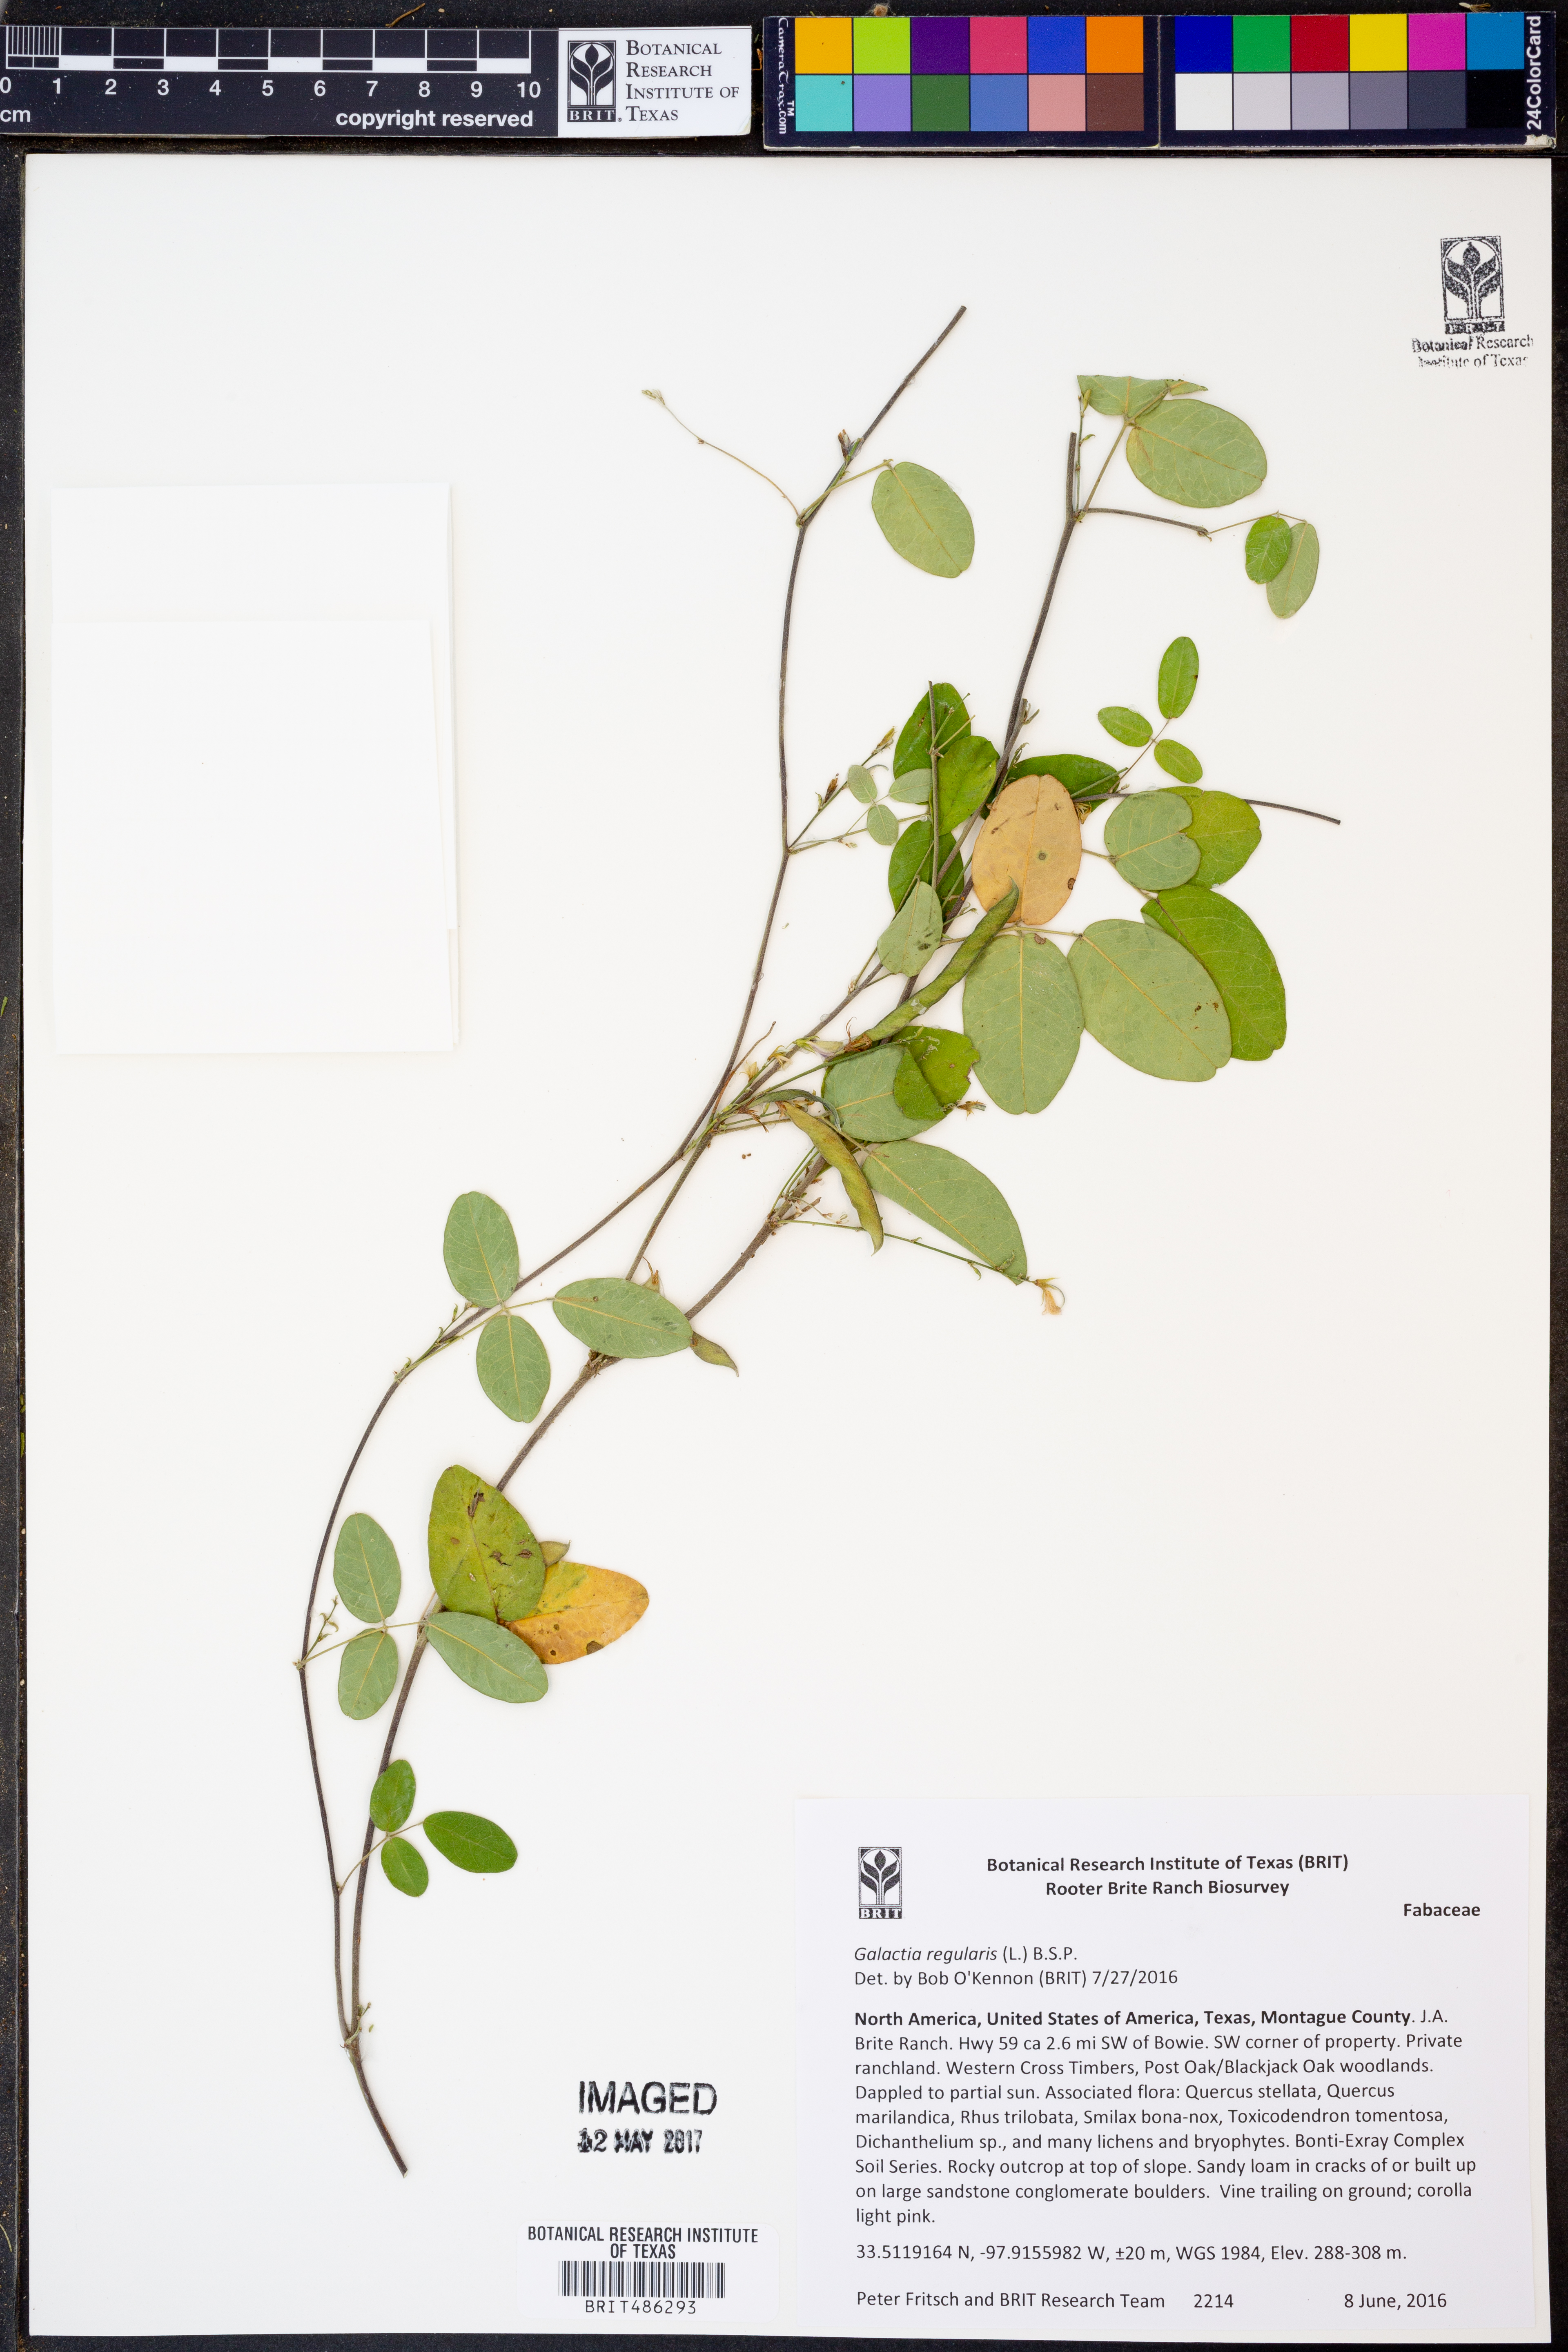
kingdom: Plantae
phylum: Tracheophyta
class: Magnoliopsida
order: Fabales
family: Fabaceae
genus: Galactia
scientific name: Galactia regularis
